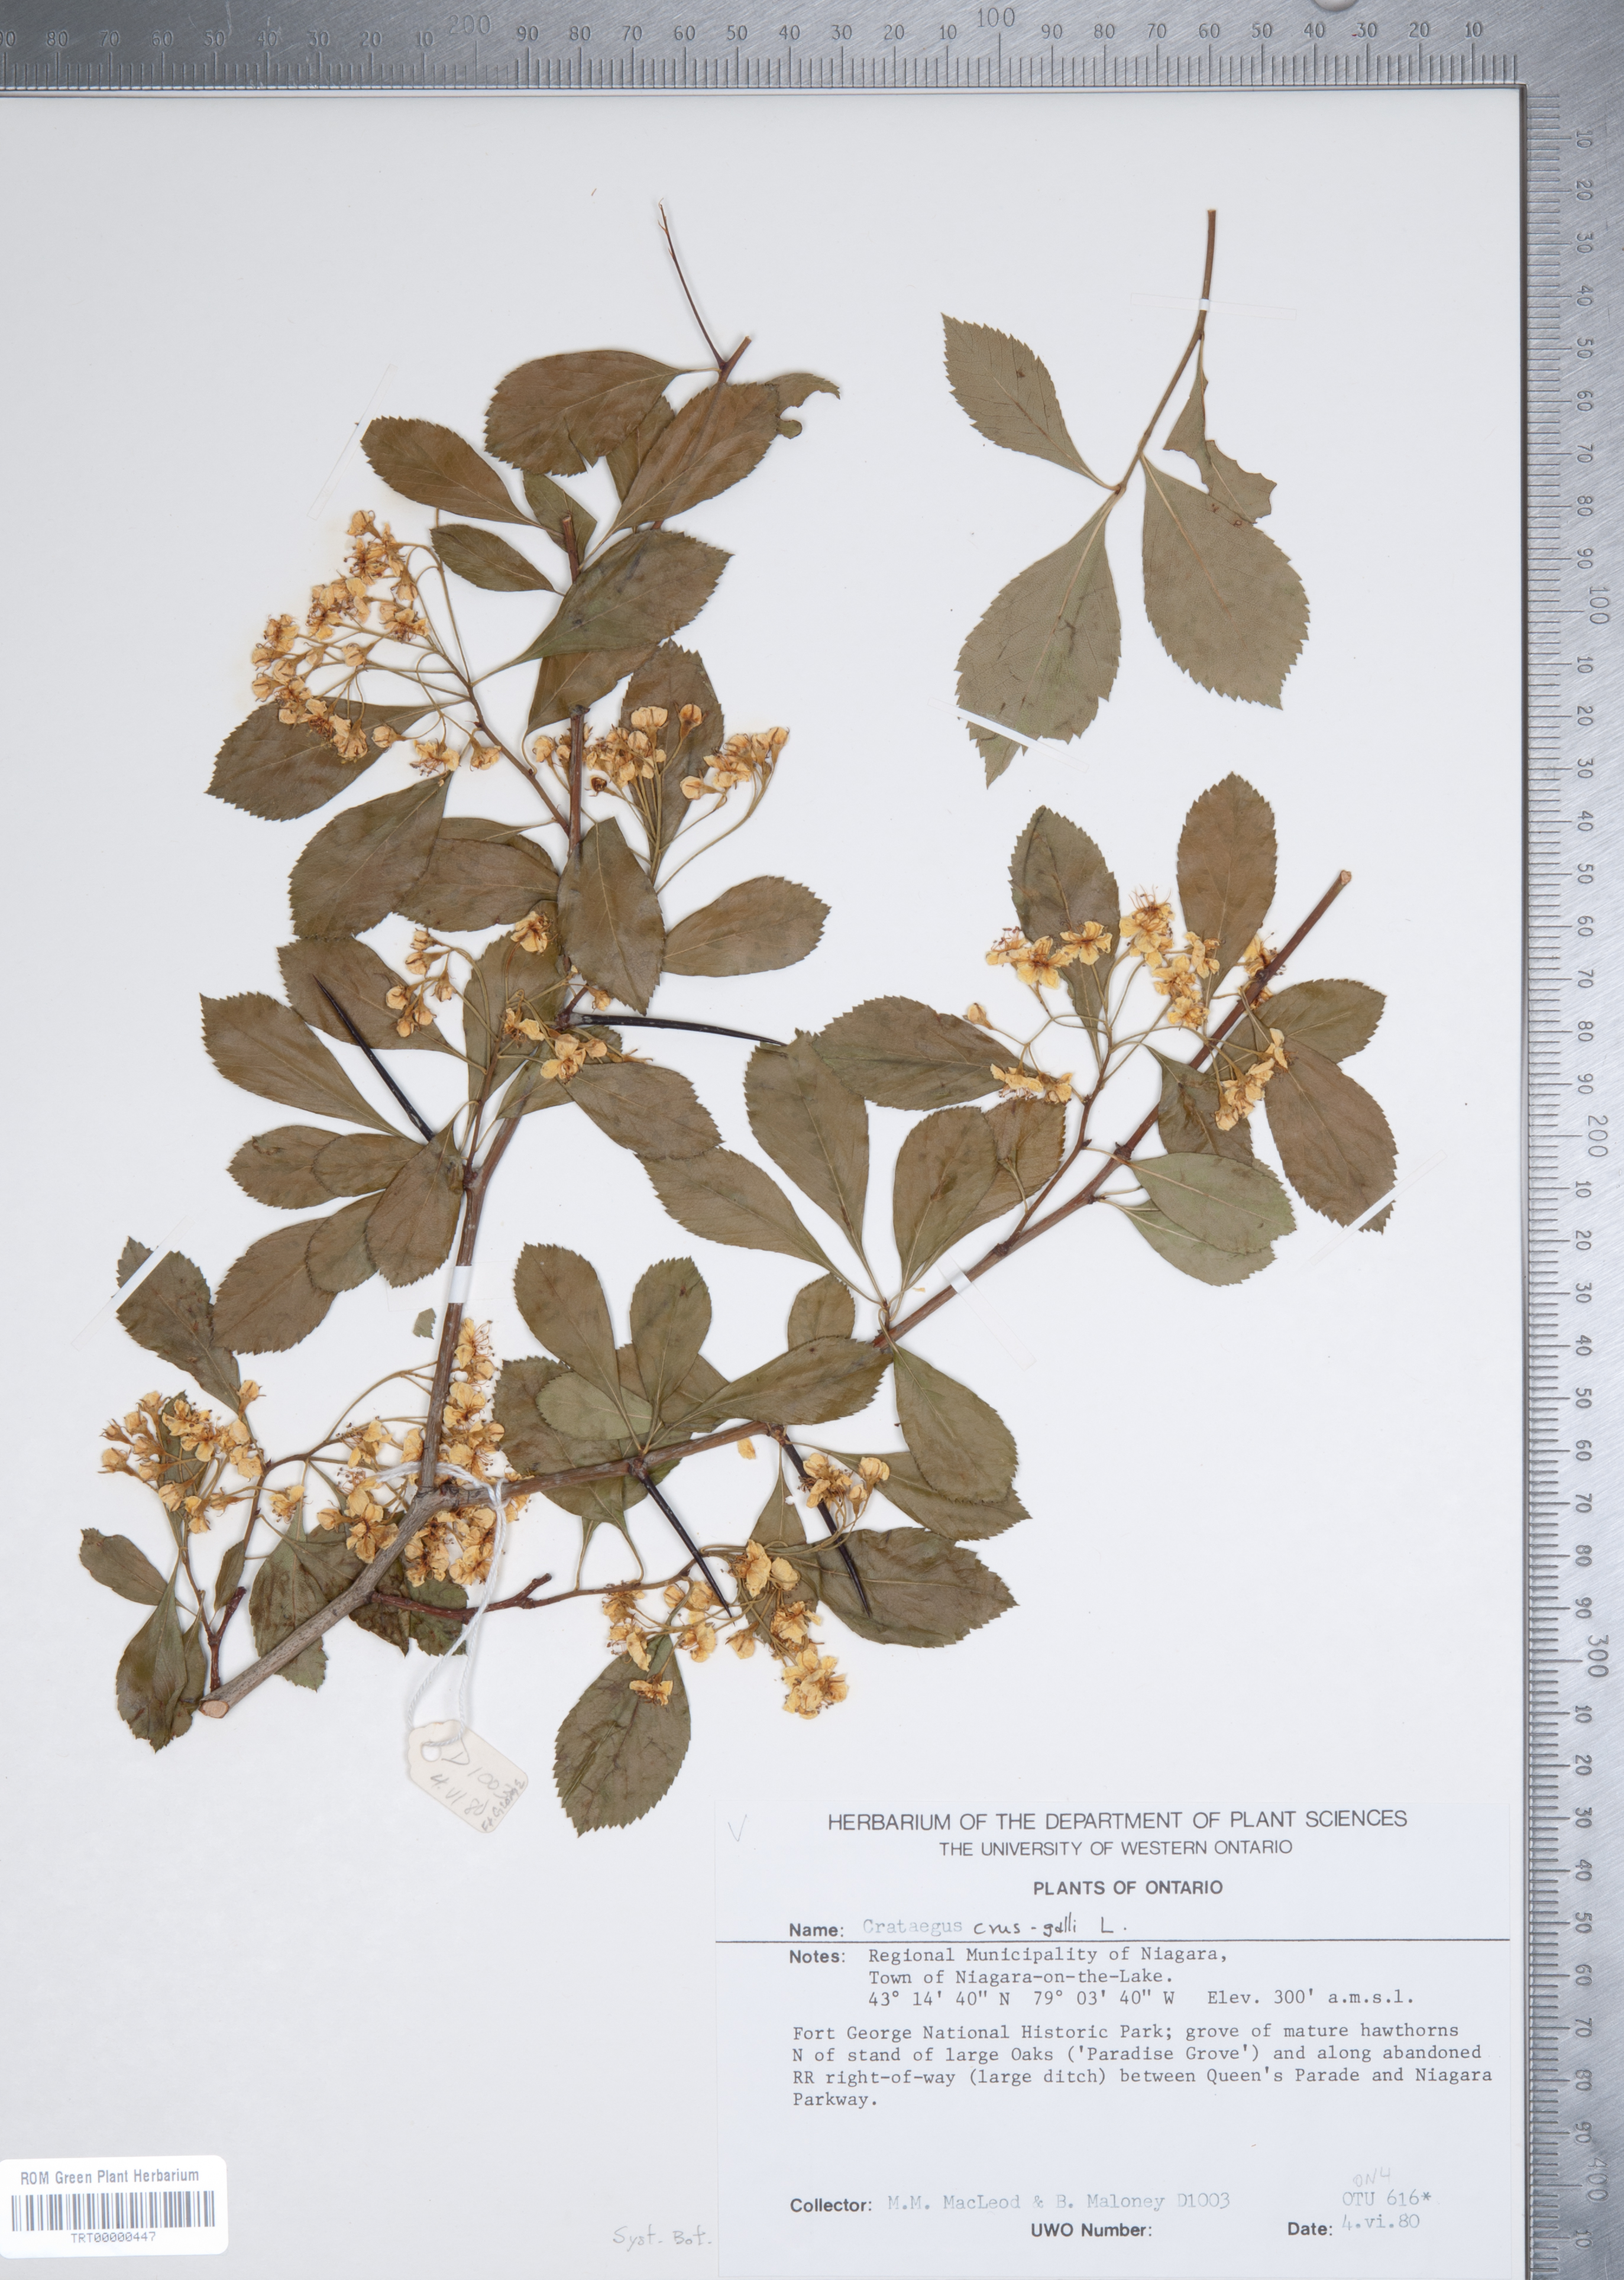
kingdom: Plantae
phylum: Tracheophyta
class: Magnoliopsida
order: Rosales
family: Rosaceae
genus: Crataegus
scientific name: Crataegus crus-galli
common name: Cockspurthorn
